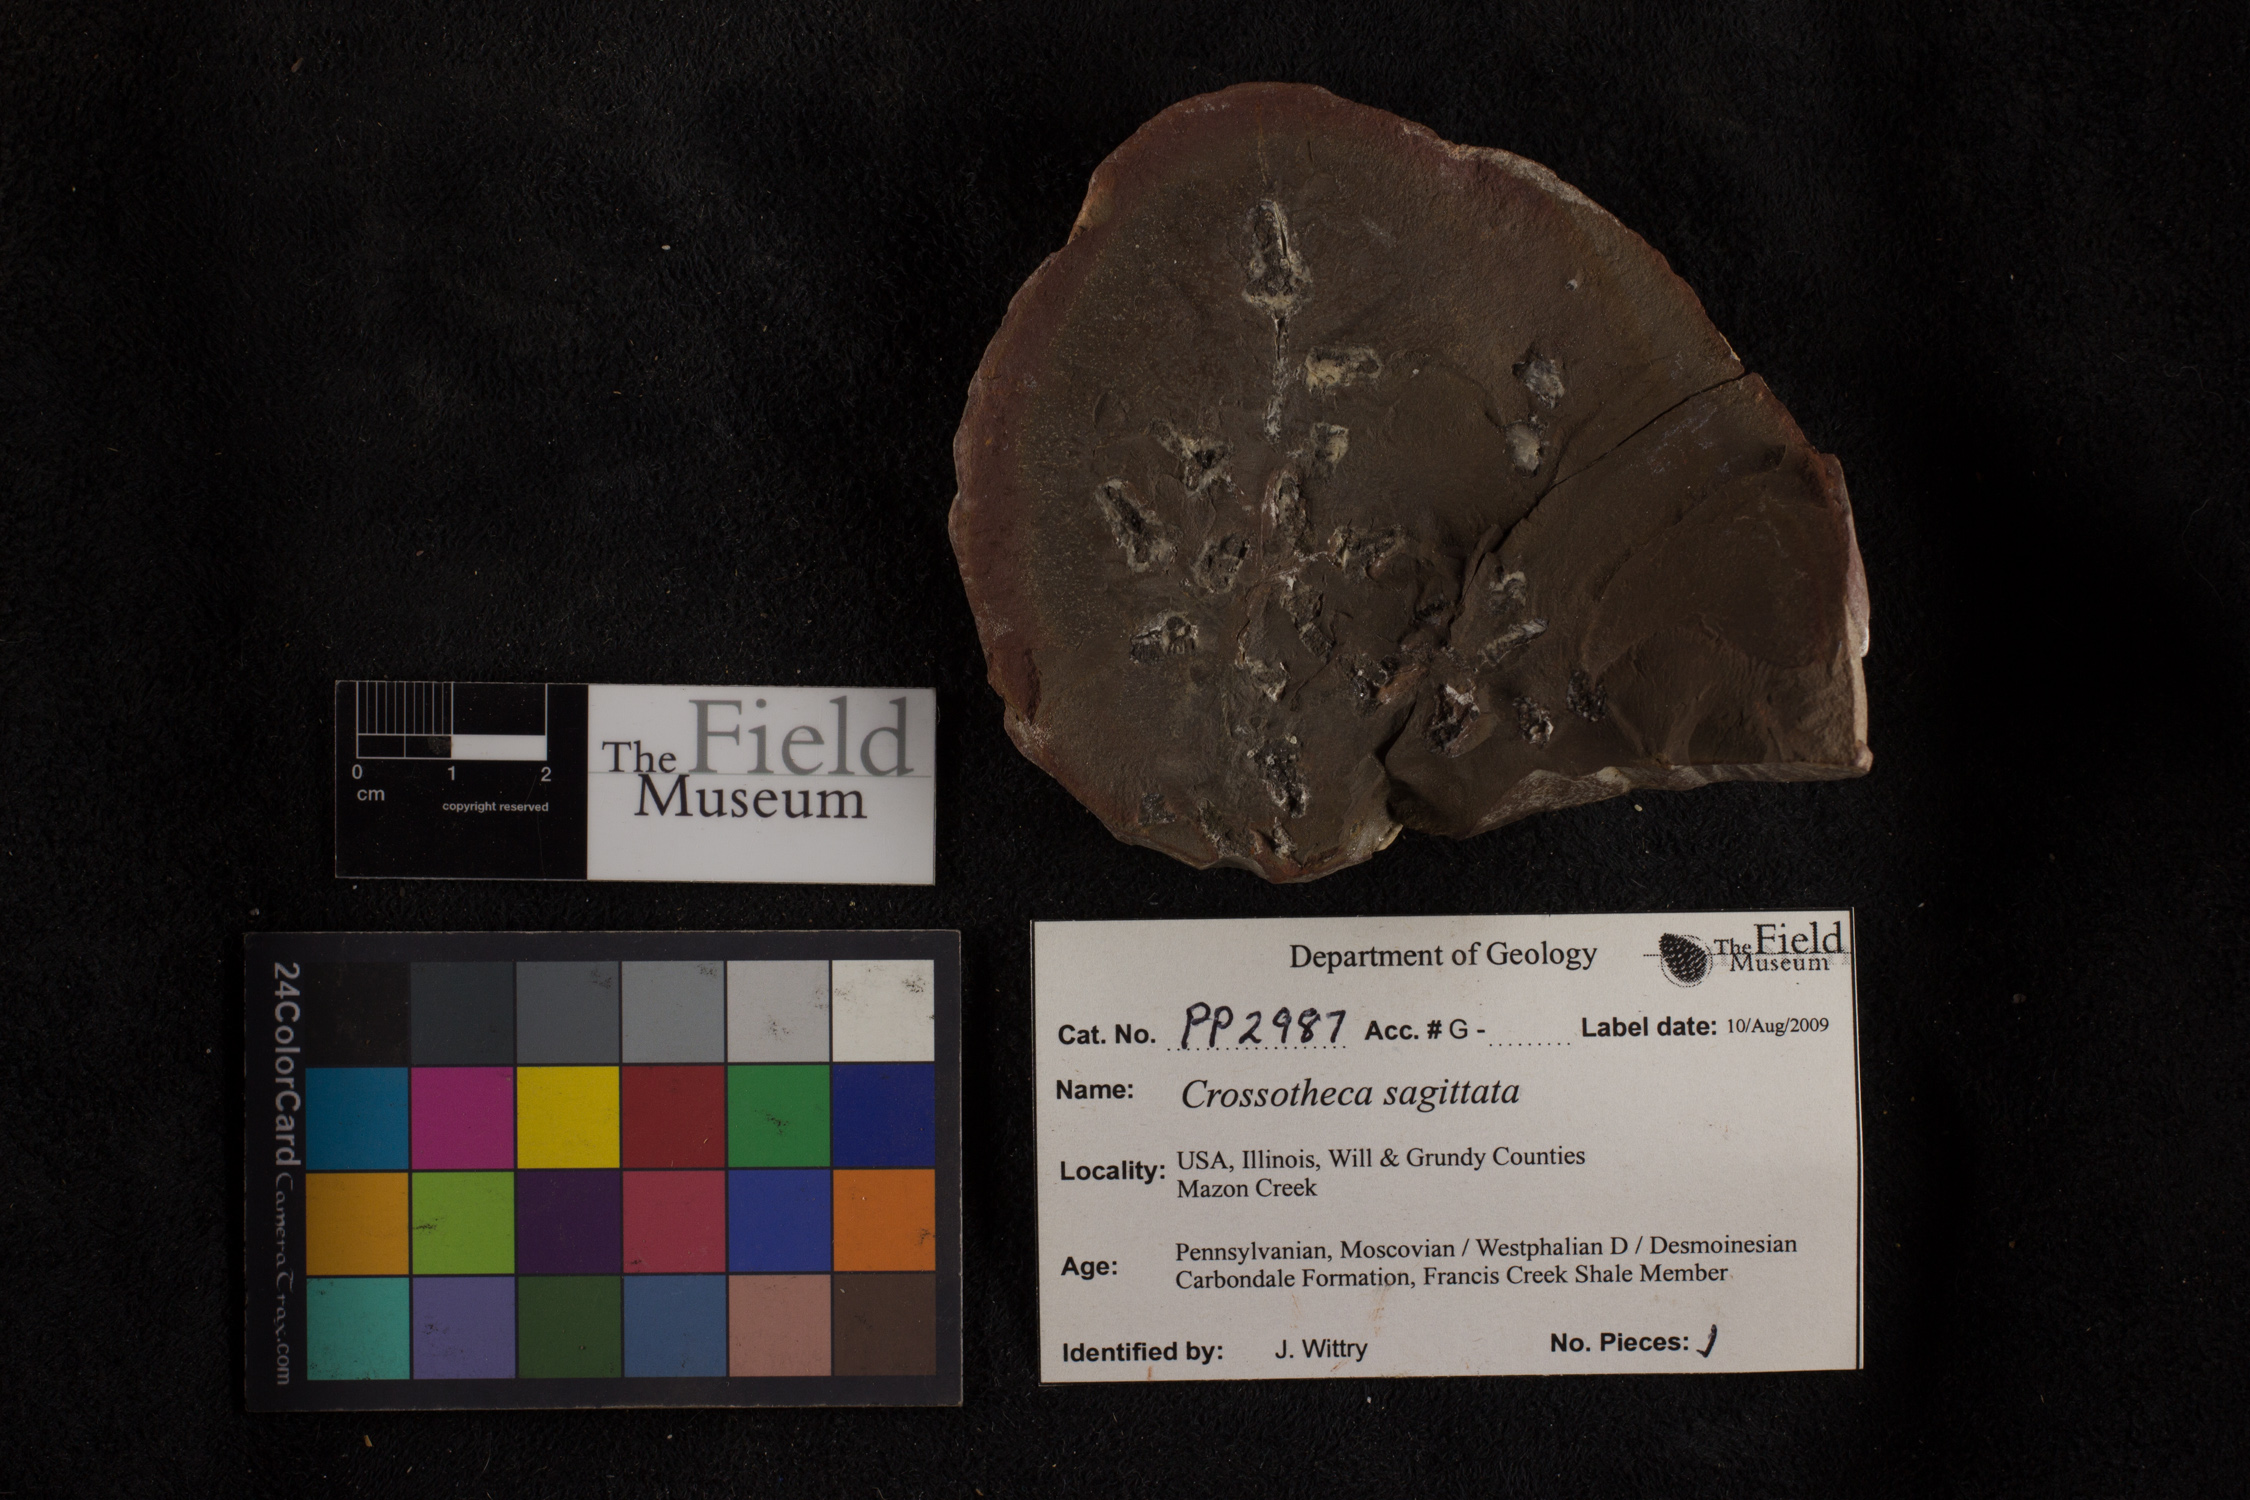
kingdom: Plantae
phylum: Tracheophyta
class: Polypodiopsida
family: Stauropteridaceae
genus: Crossotheca
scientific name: Crossotheca
